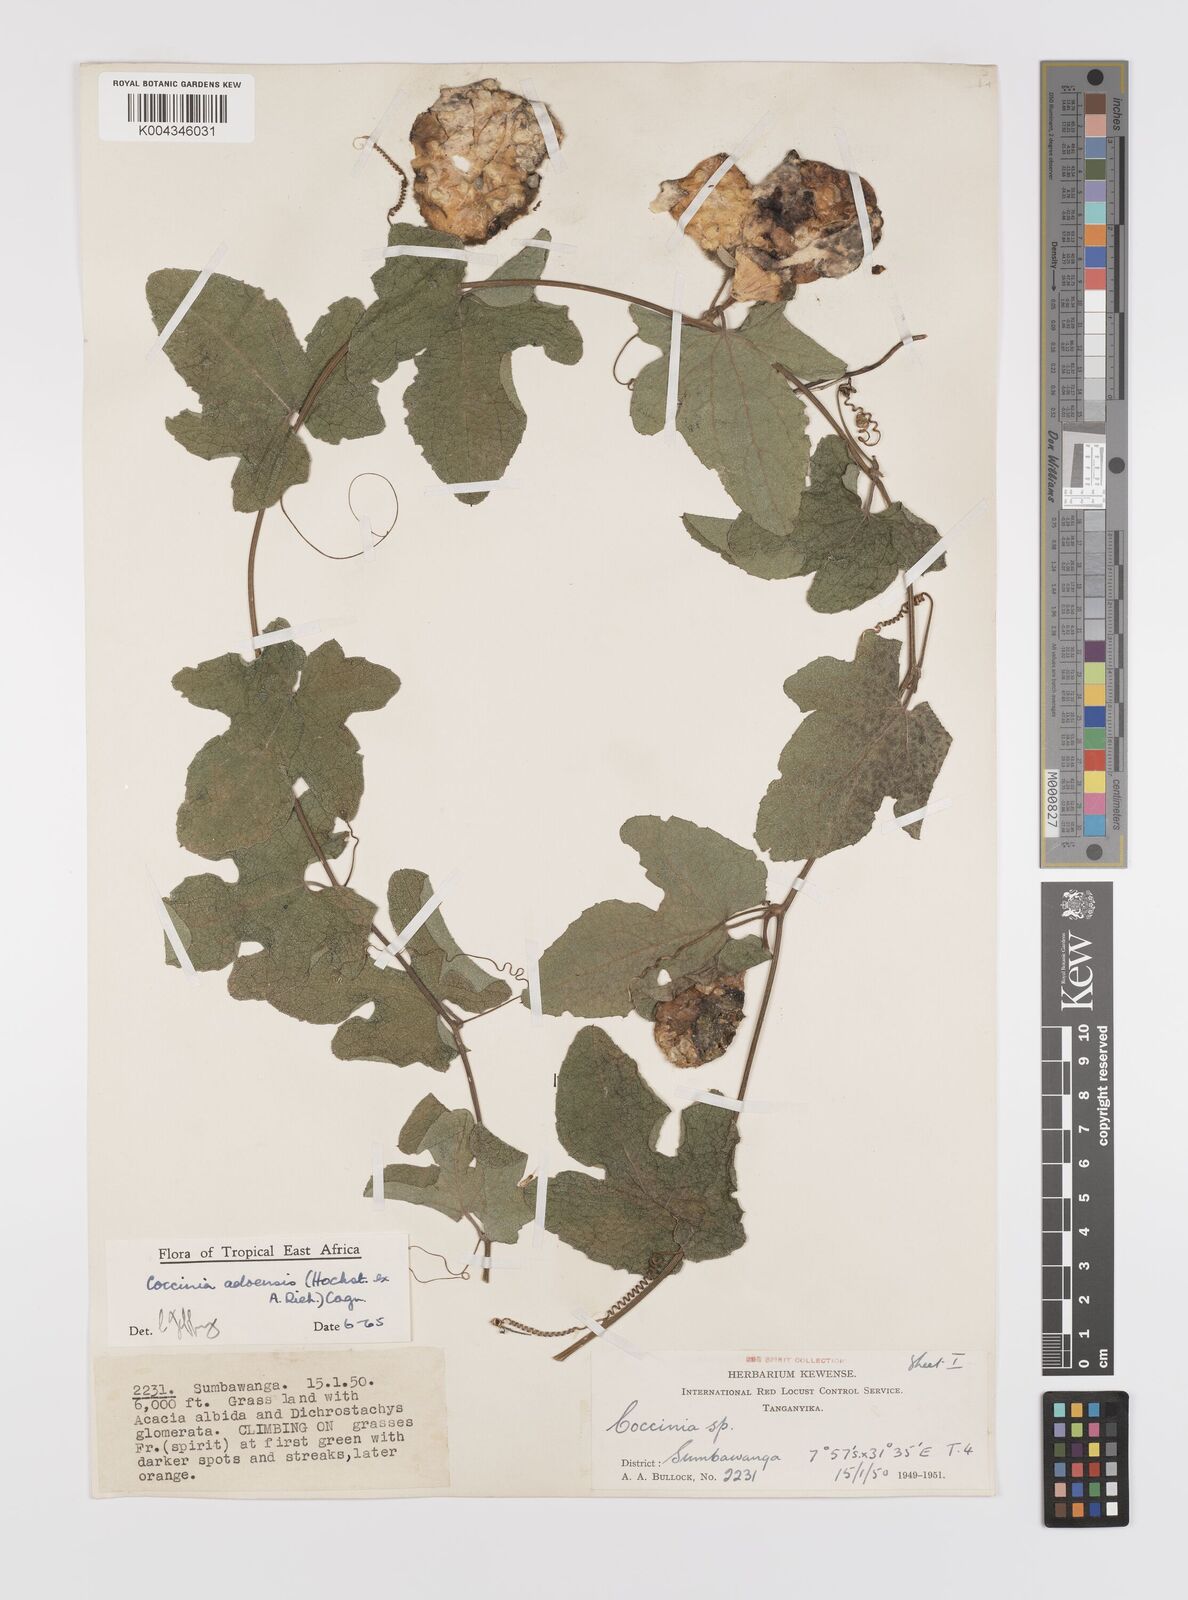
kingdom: Plantae
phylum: Tracheophyta
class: Magnoliopsida
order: Cucurbitales
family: Cucurbitaceae
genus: Coccinia
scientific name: Coccinia adoensis
